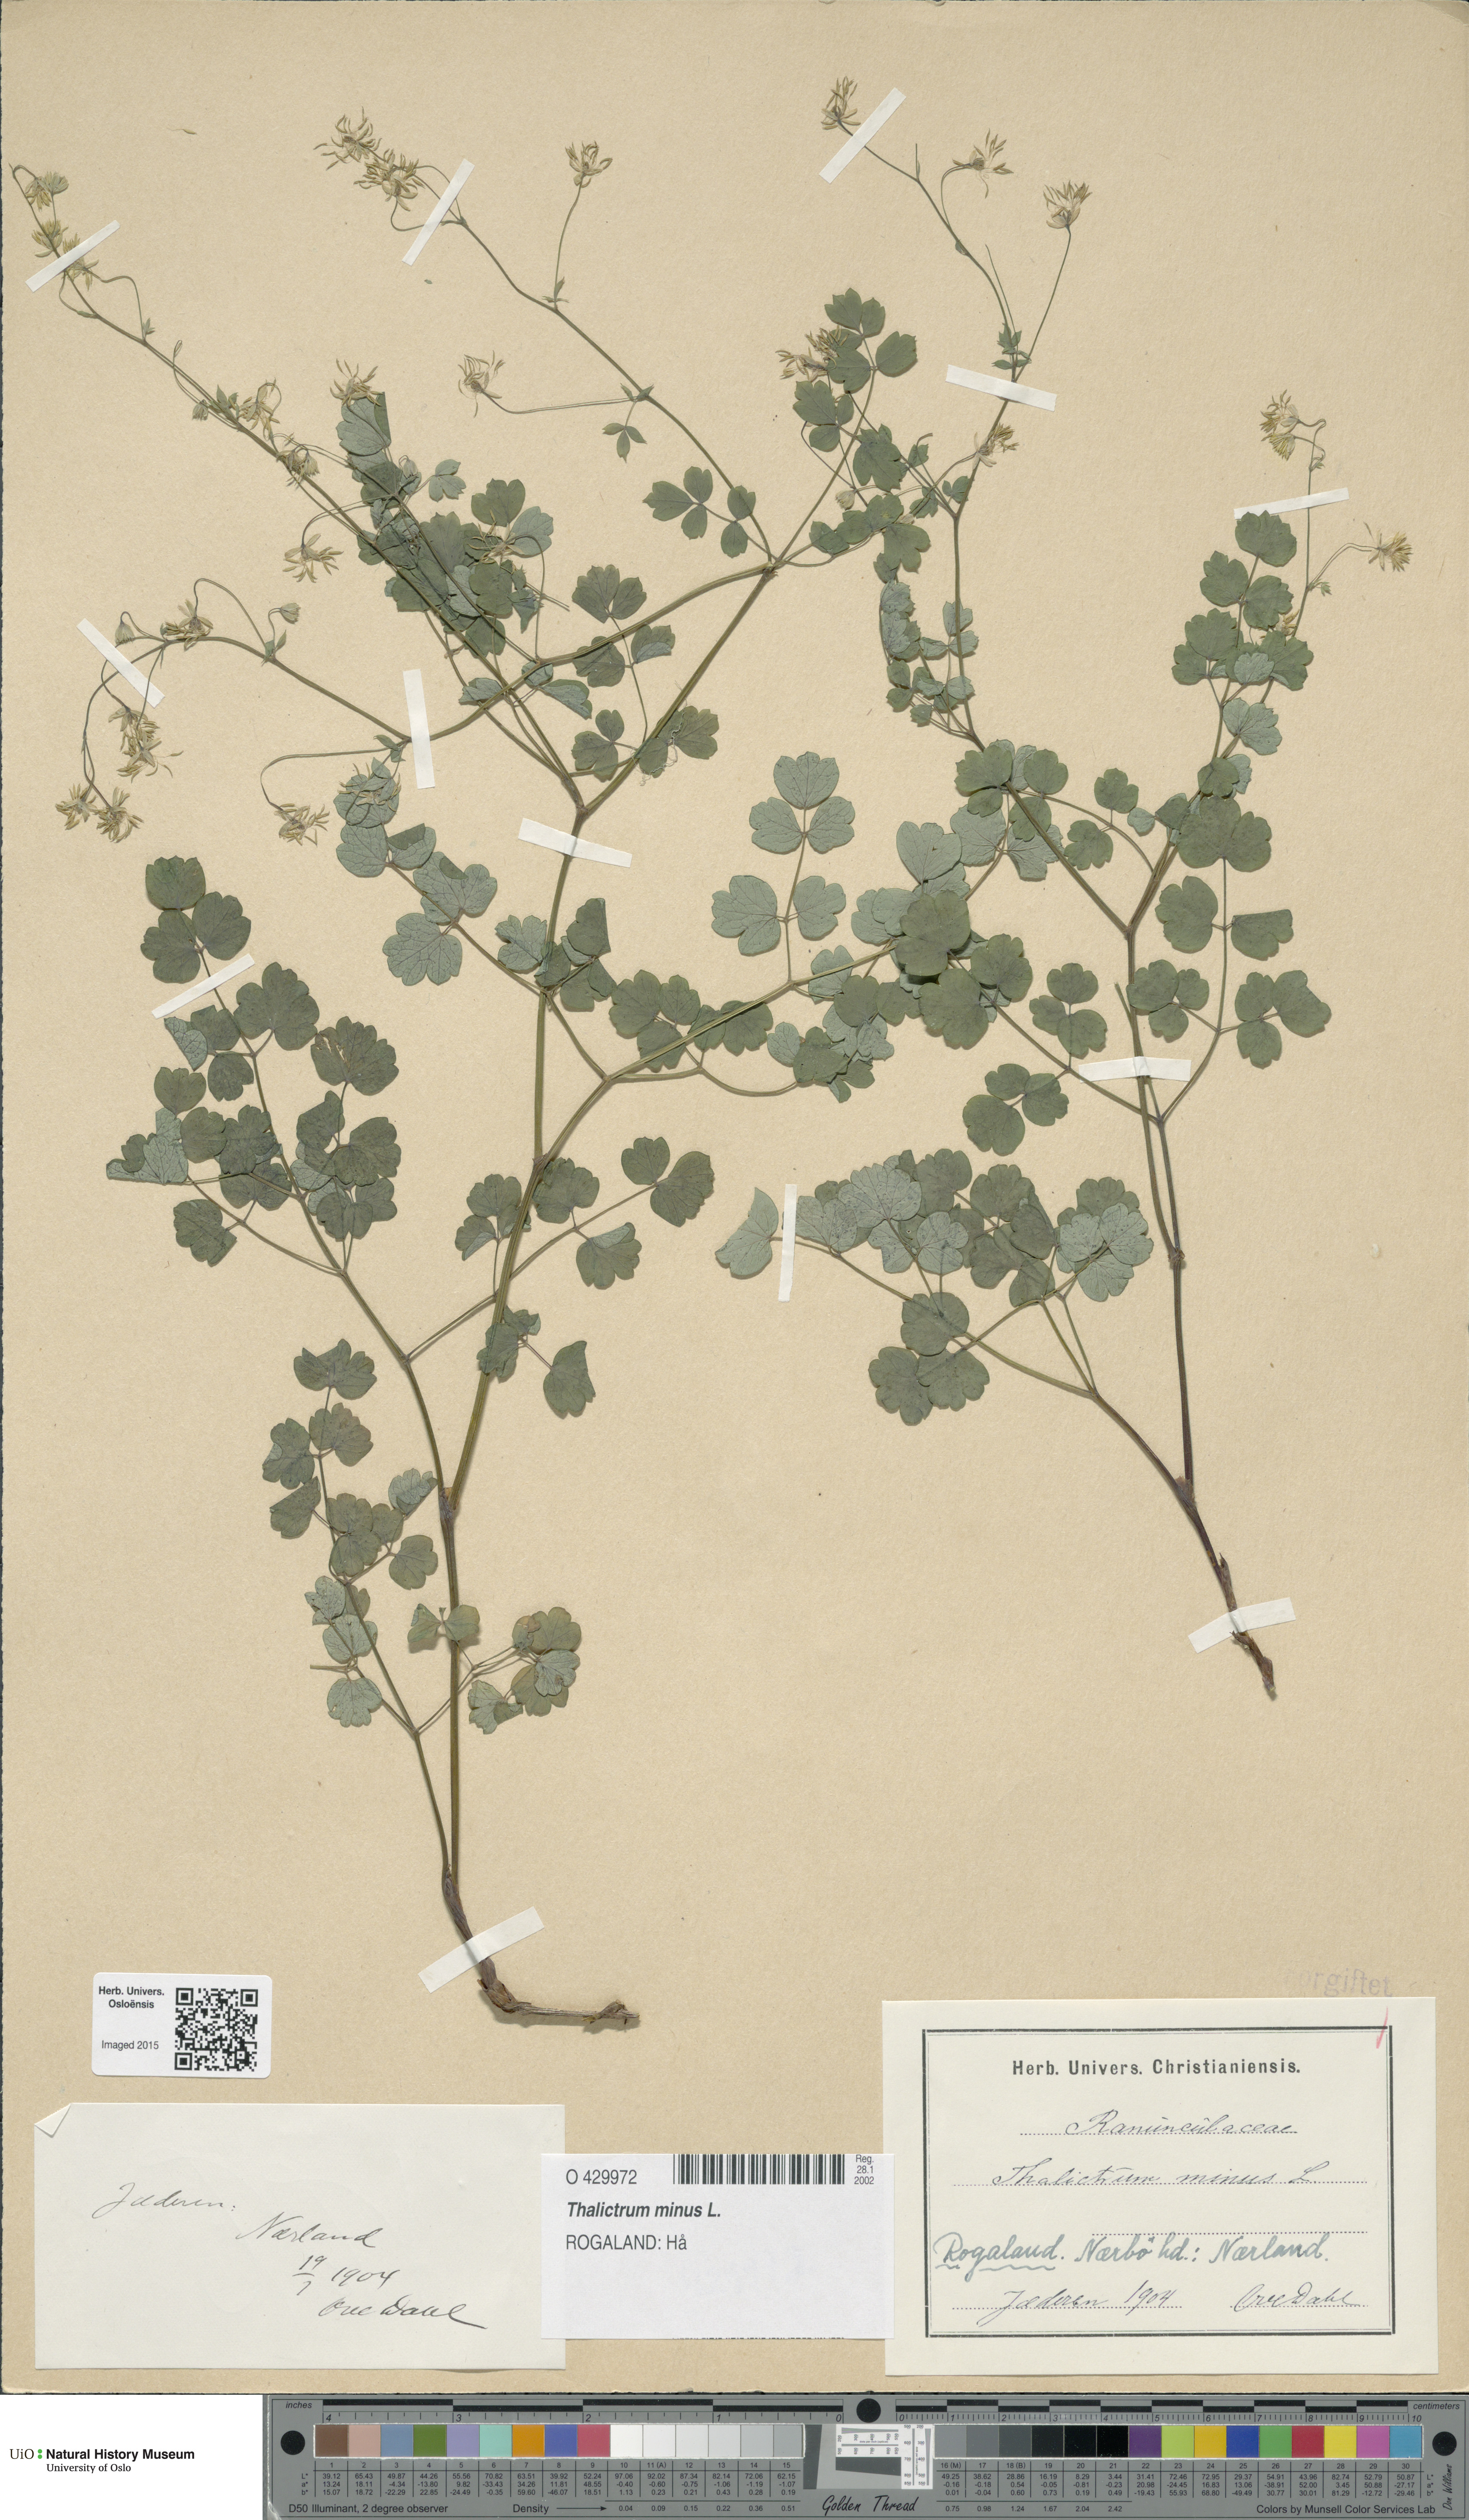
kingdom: Plantae
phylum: Tracheophyta
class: Magnoliopsida
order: Ranunculales
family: Ranunculaceae
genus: Thalictrum
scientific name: Thalictrum minus
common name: Lesser meadow-rue
